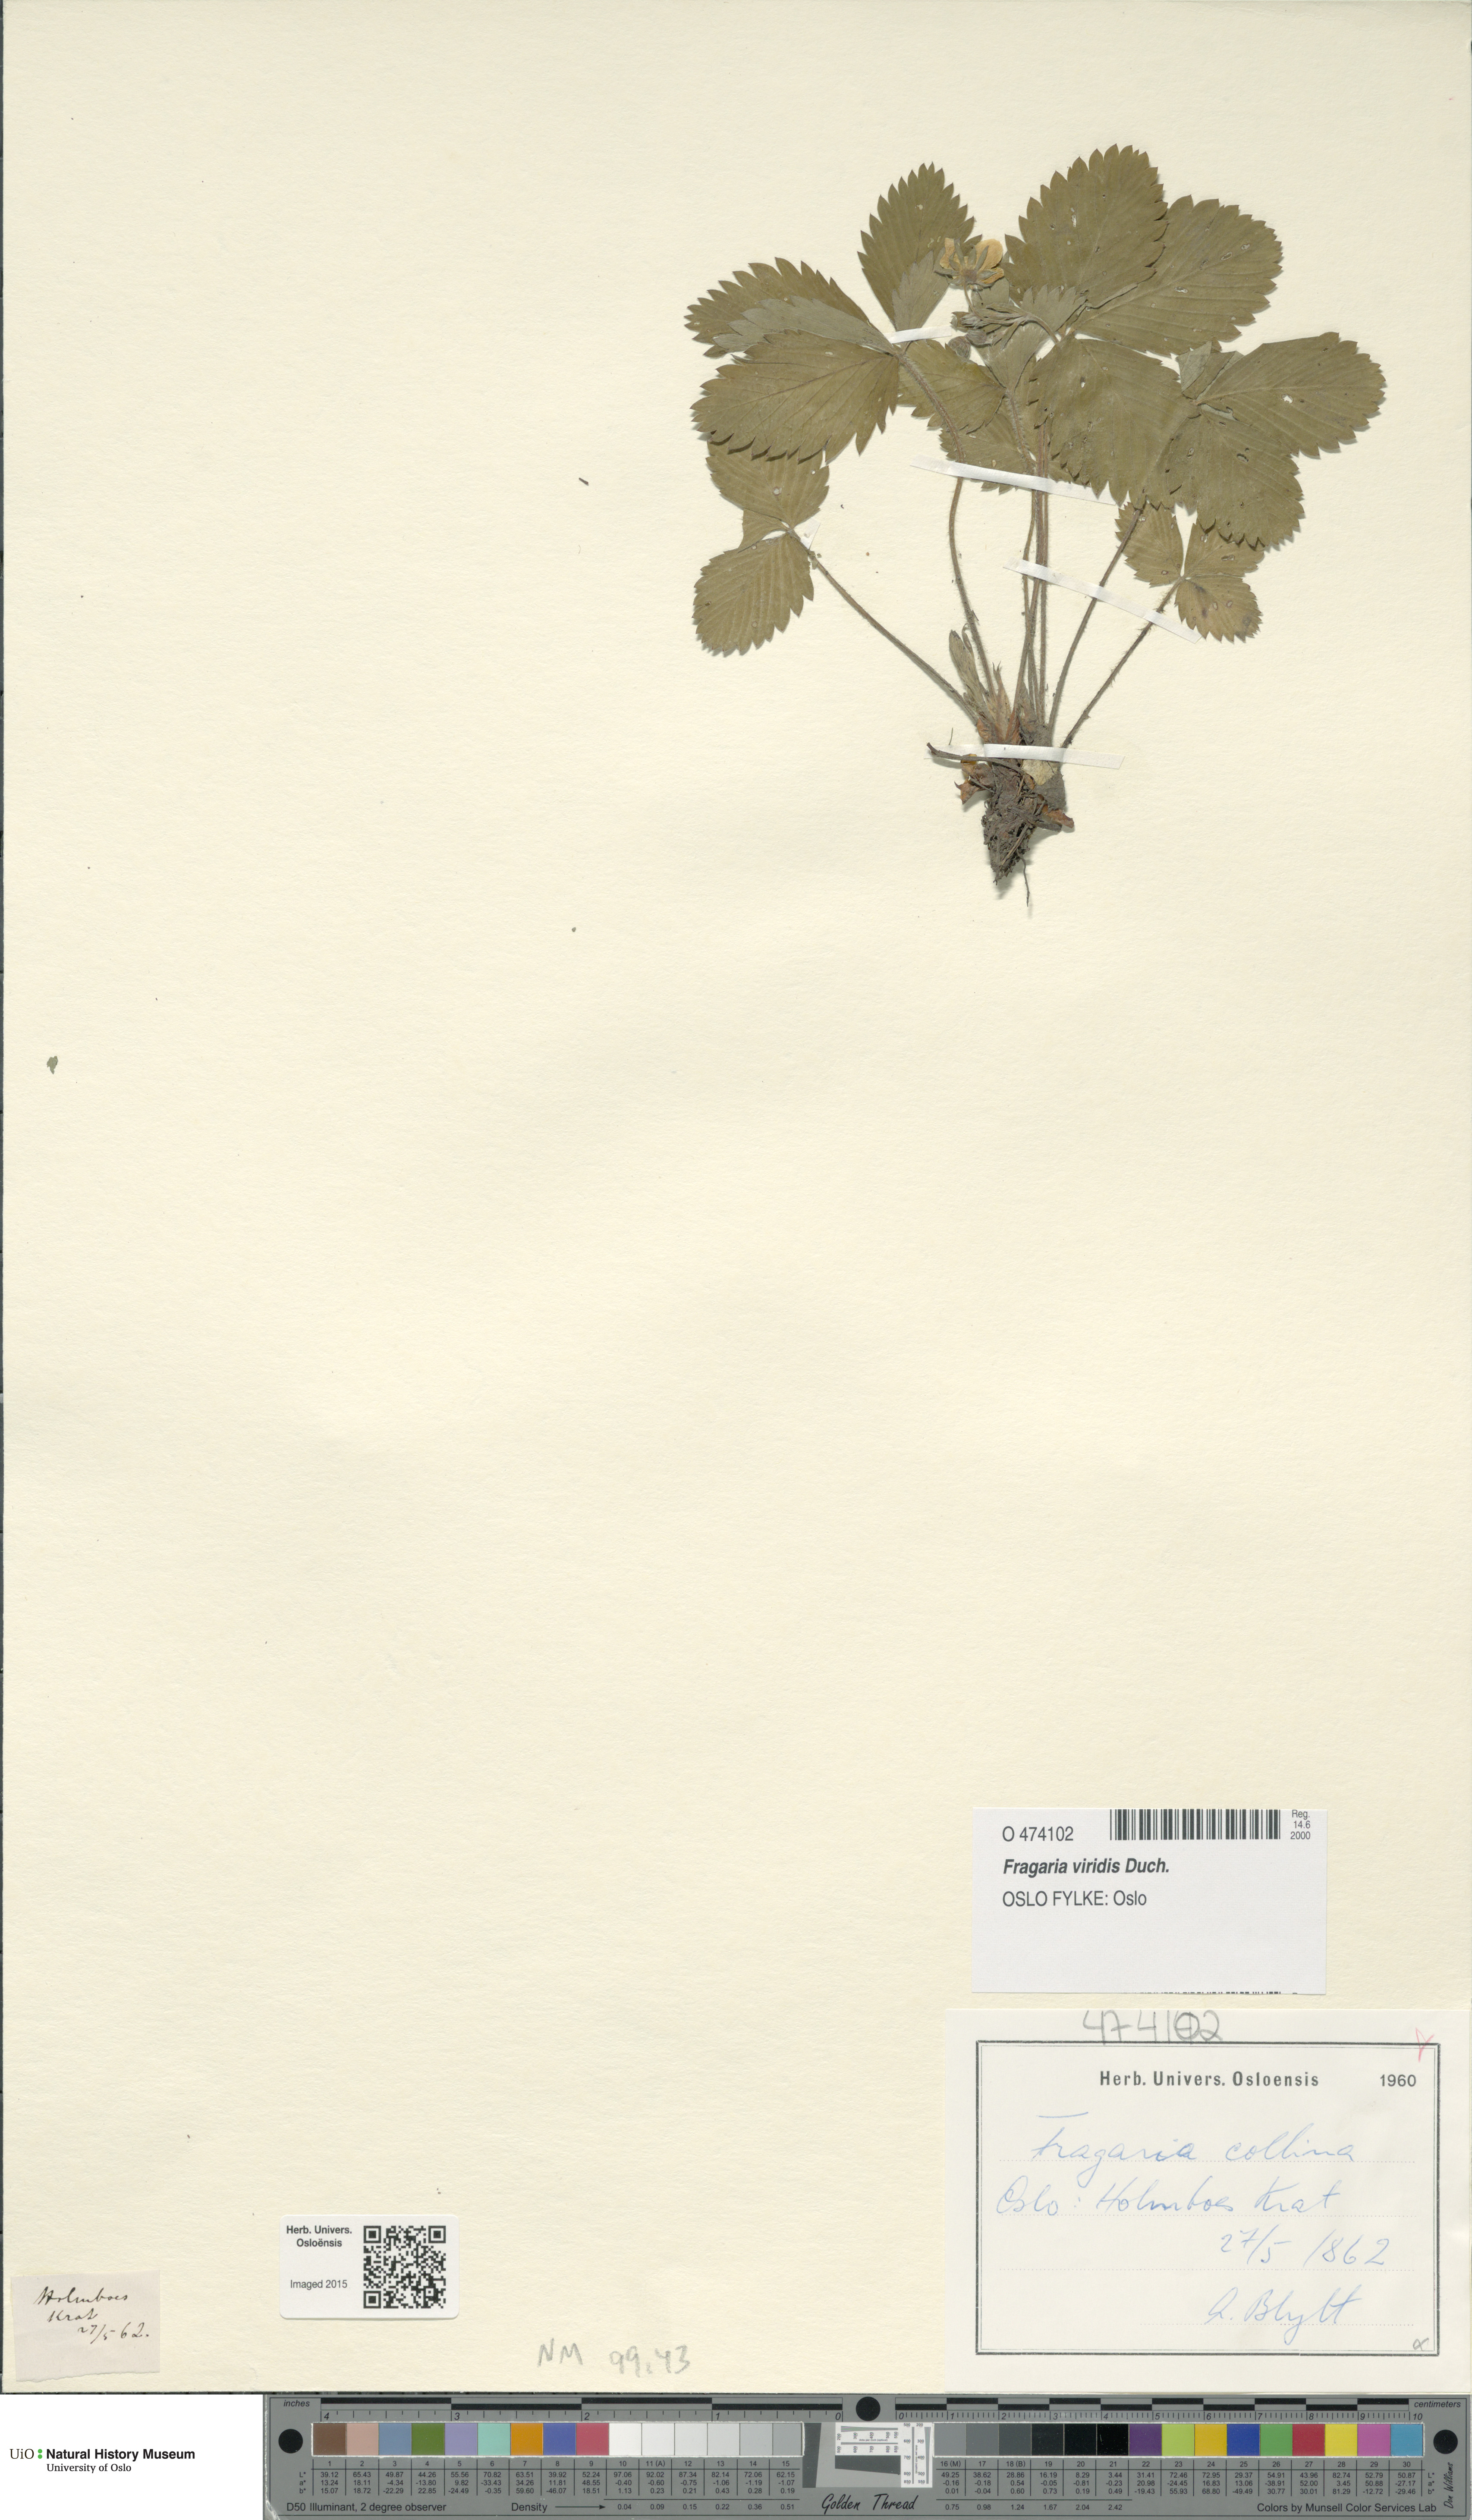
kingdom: Plantae
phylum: Tracheophyta
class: Magnoliopsida
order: Rosales
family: Rosaceae
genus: Fragaria
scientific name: Fragaria viridis
